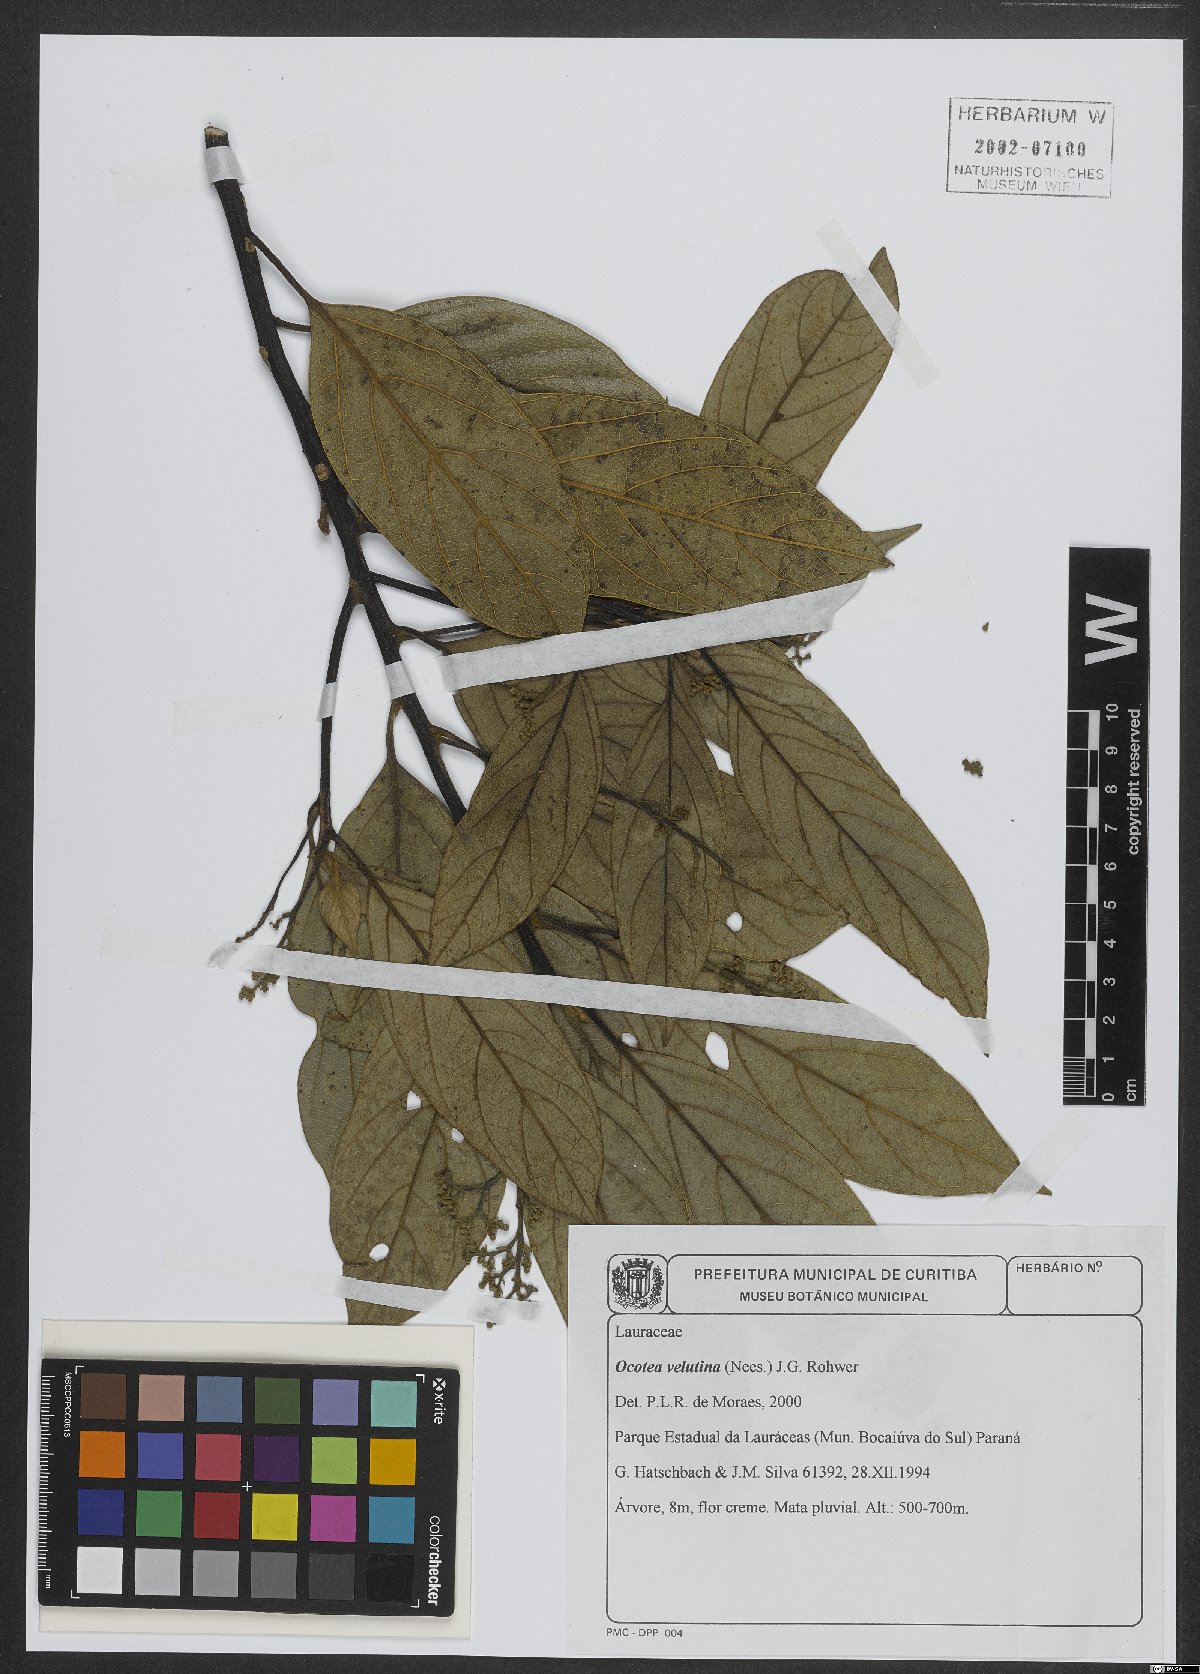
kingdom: Plantae
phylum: Tracheophyta
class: Magnoliopsida
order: Laurales
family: Lauraceae
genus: Andea
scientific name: Andea velutina
